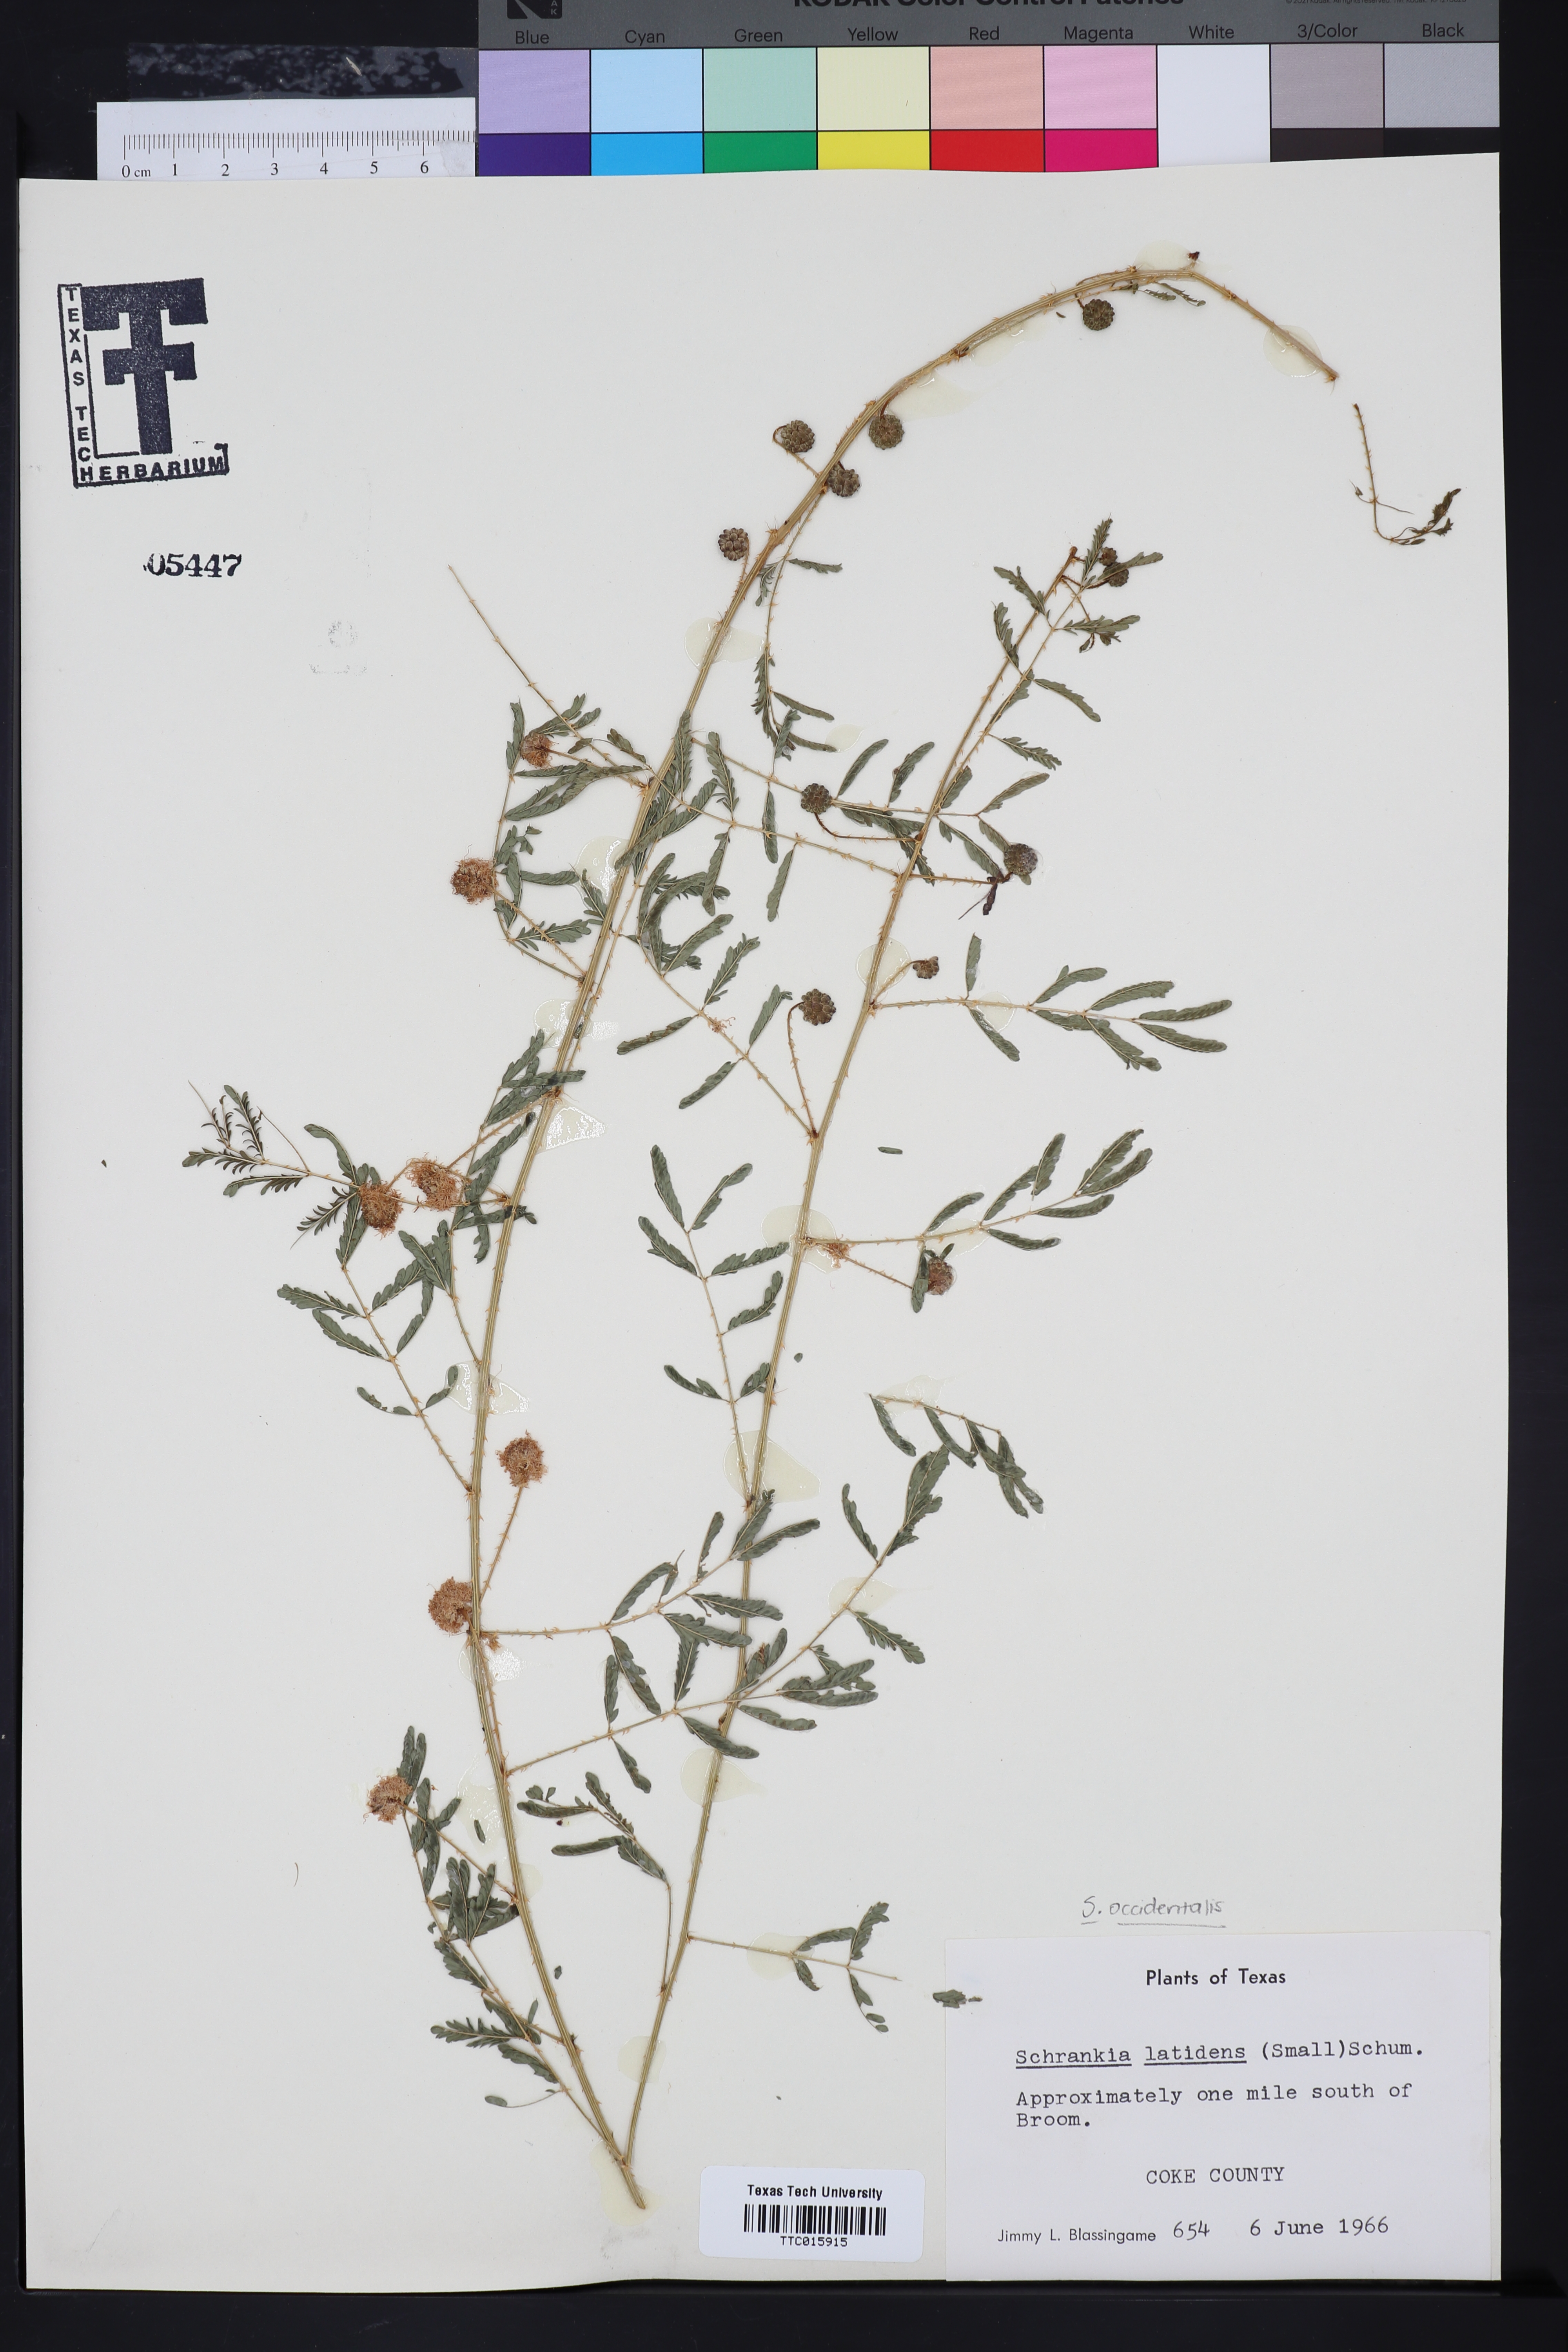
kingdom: Plantae
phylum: Tracheophyta
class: Magnoliopsida
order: Fabales
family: Fabaceae
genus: Mimosa
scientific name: Mimosa quadrivalvis
